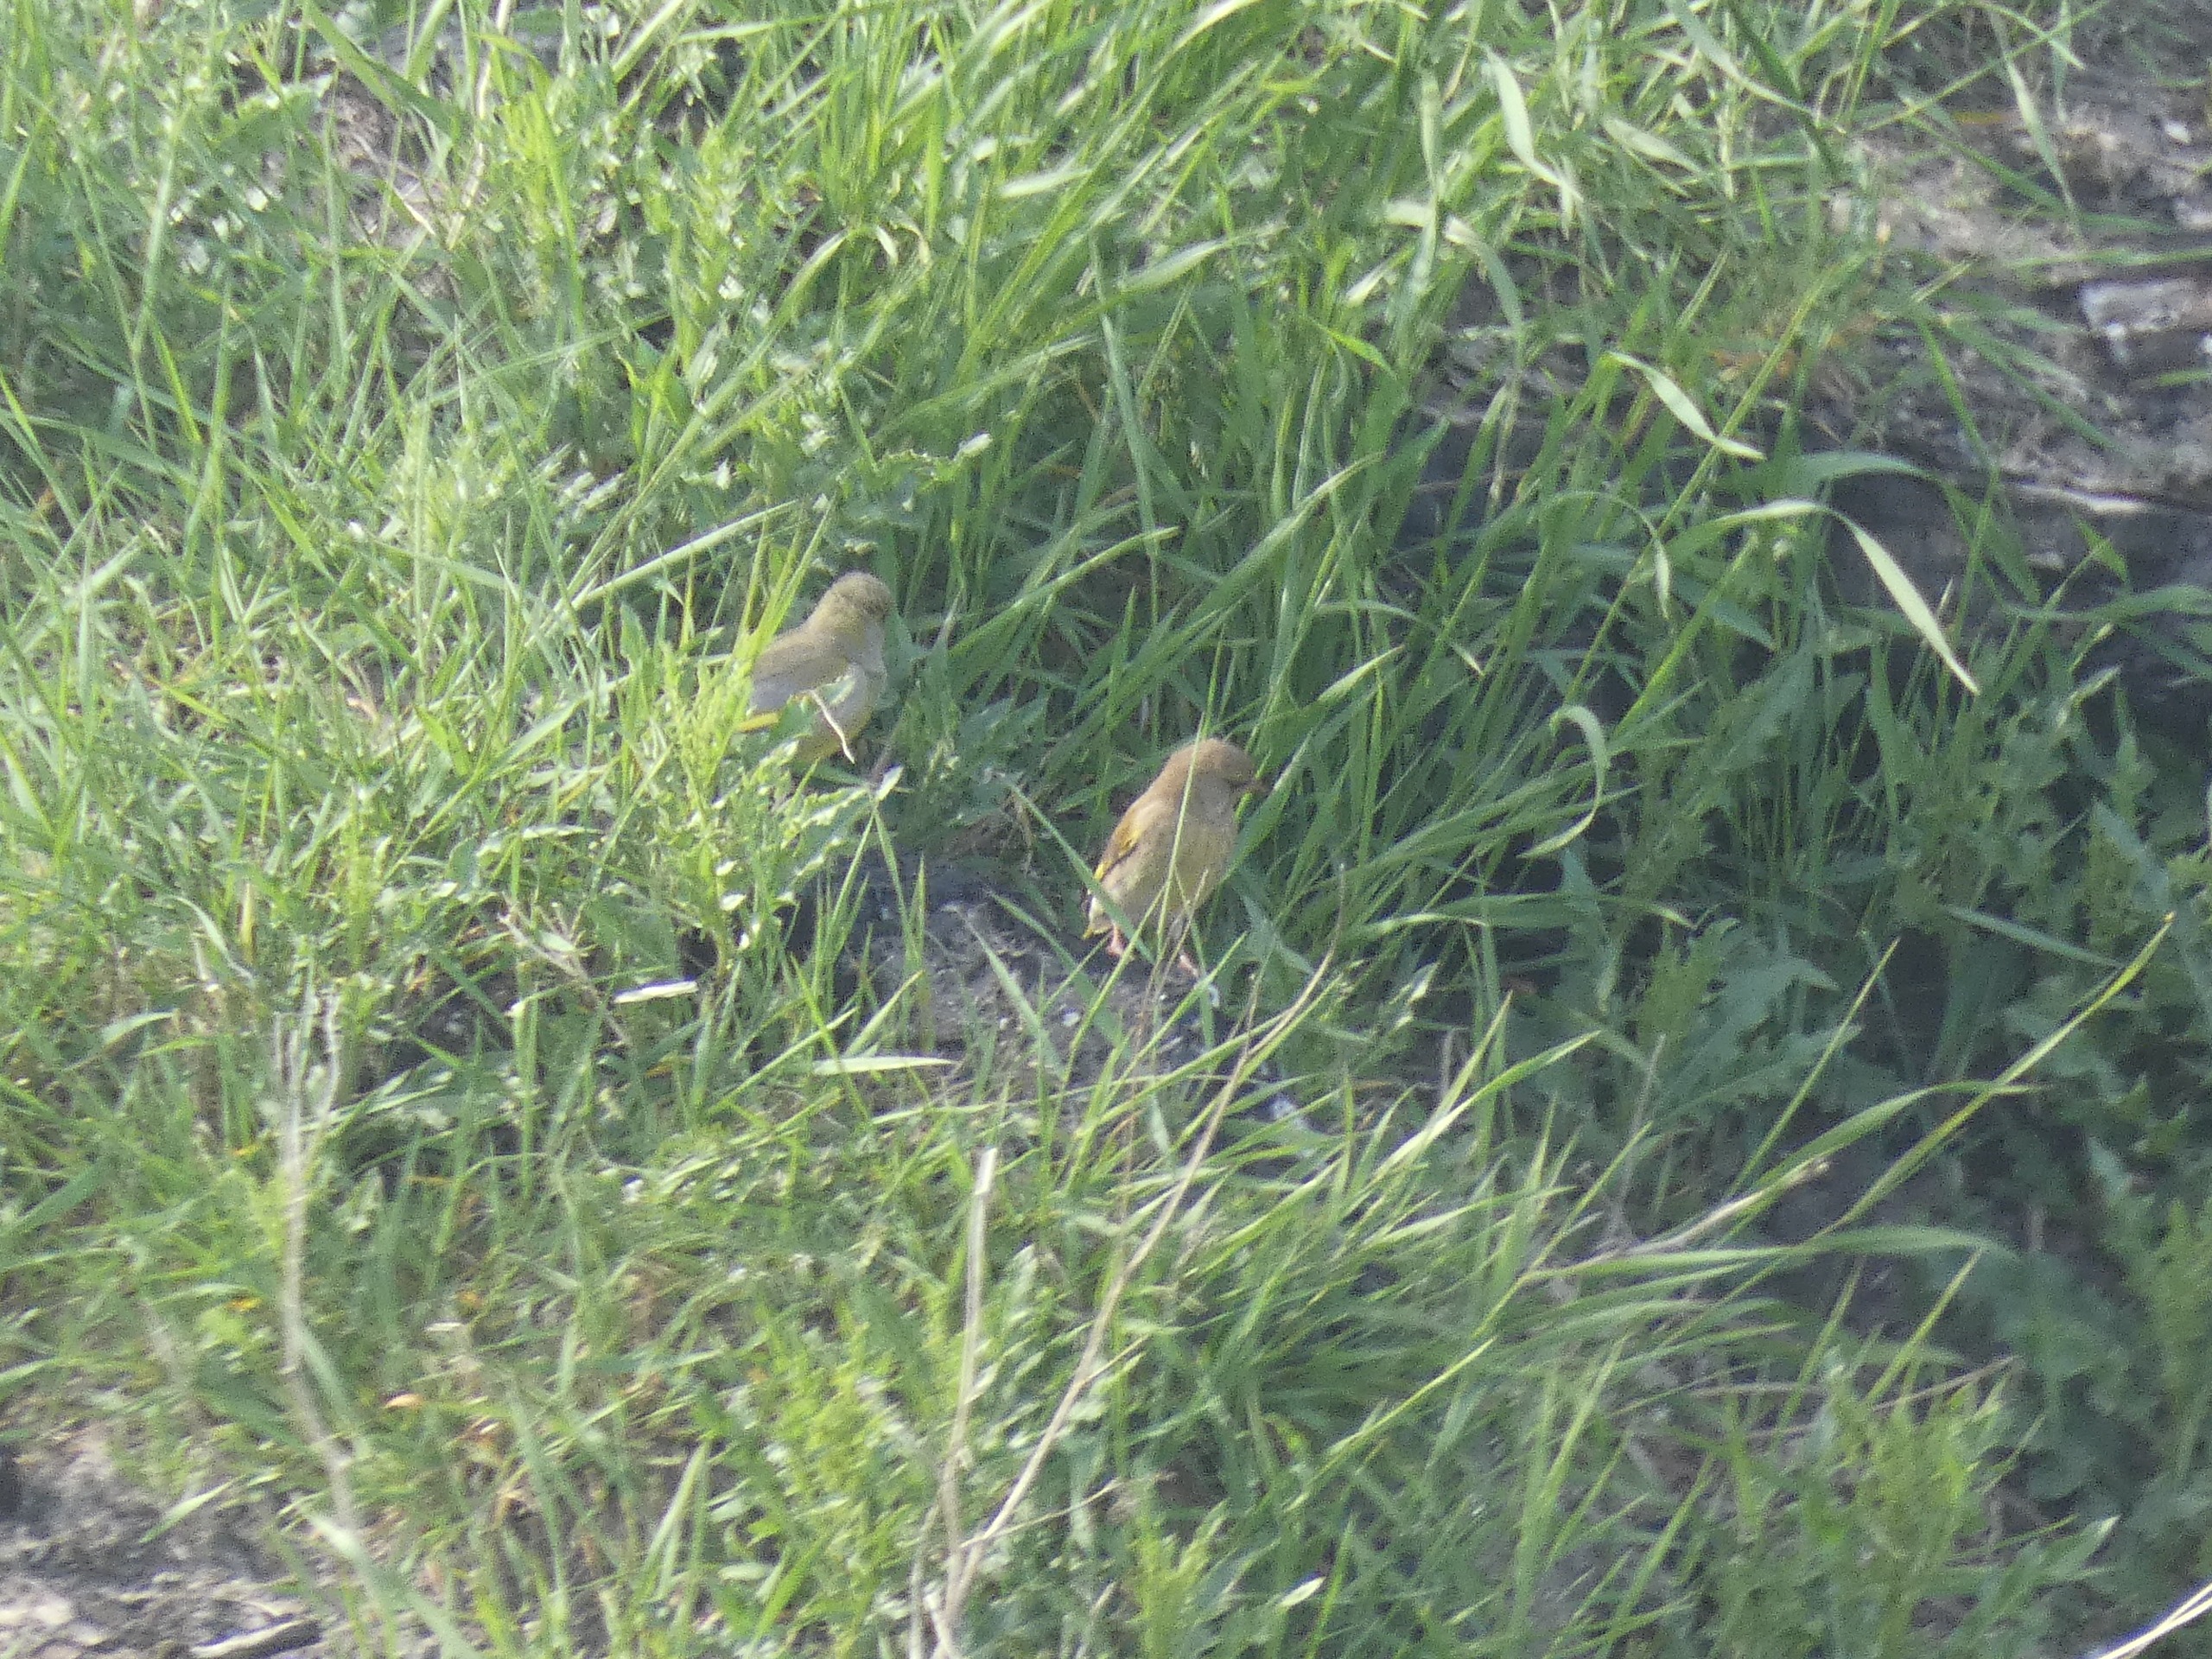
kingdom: Plantae
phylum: Tracheophyta
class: Liliopsida
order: Poales
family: Poaceae
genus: Chloris
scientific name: Chloris chloris
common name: Grønirisk
